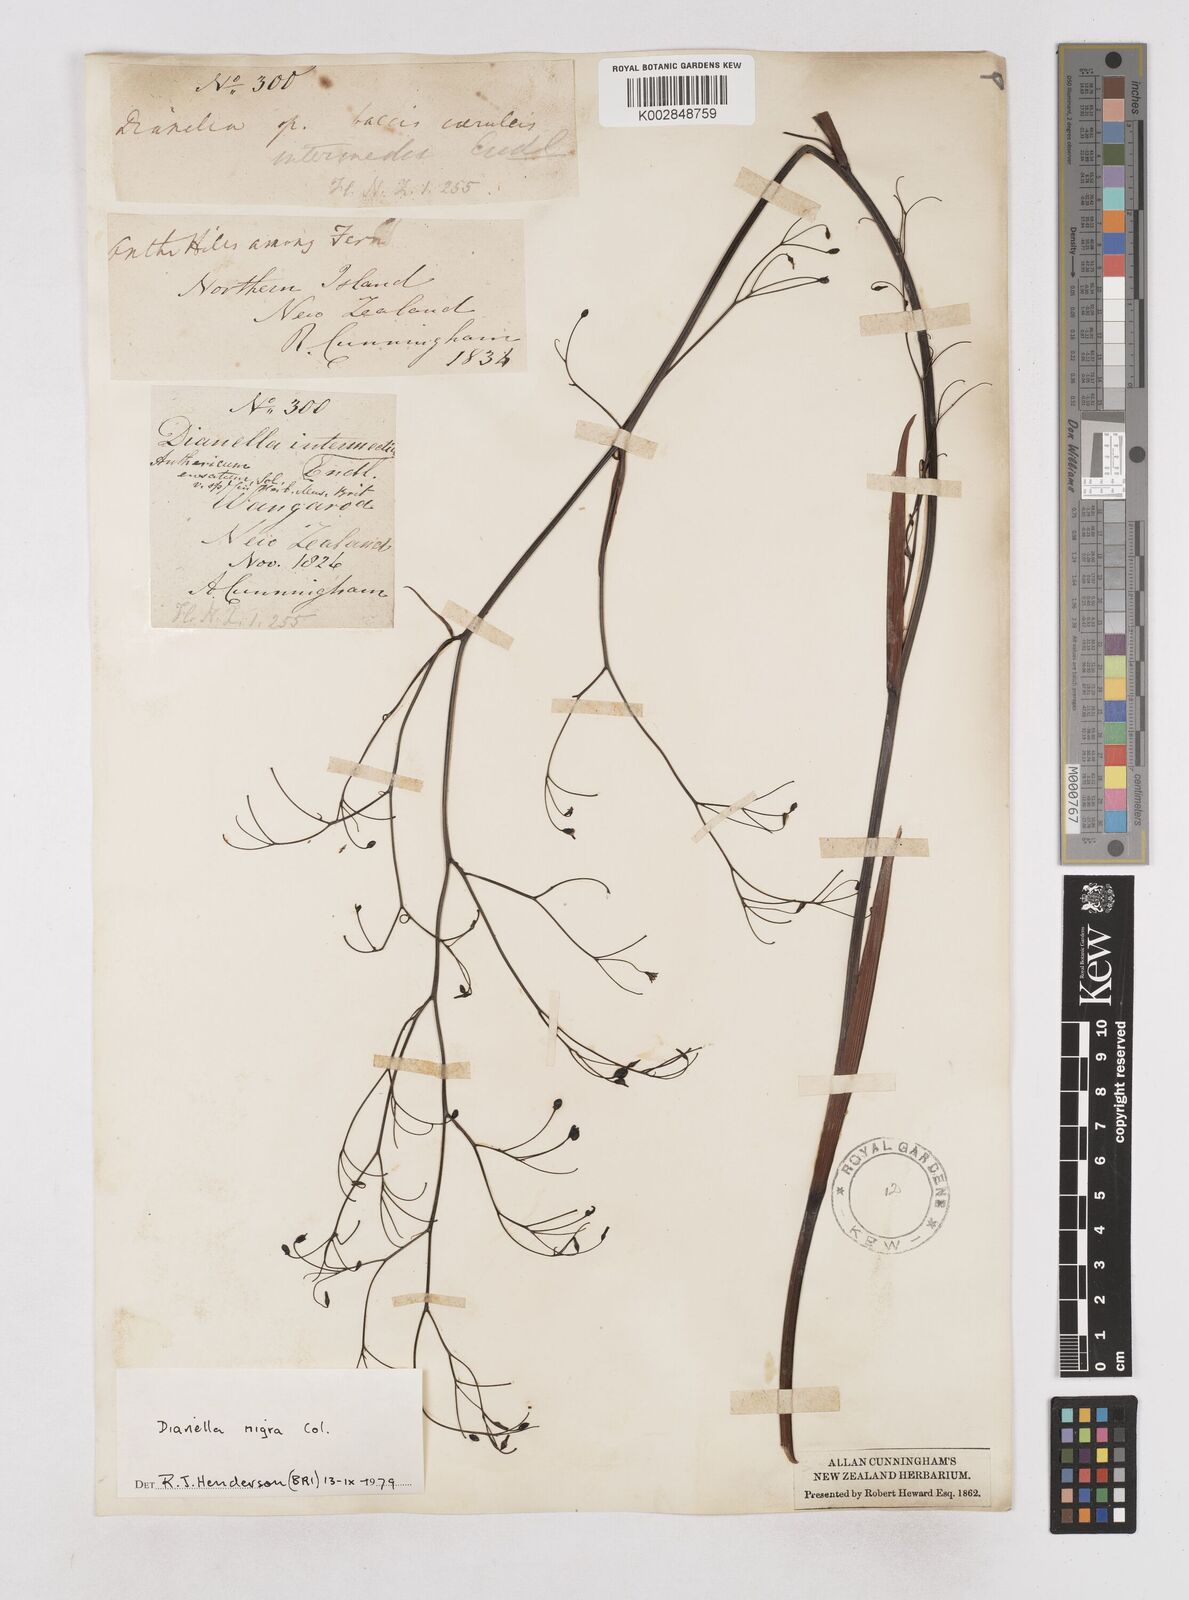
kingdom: Plantae
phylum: Tracheophyta
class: Liliopsida
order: Asparagales
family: Asphodelaceae
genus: Dianella
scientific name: Dianella nigra
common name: New zealand-blueberry
